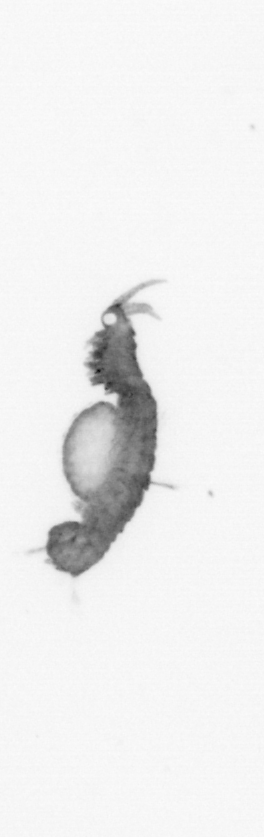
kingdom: Animalia
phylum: Annelida
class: Polychaeta
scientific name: Polychaeta
